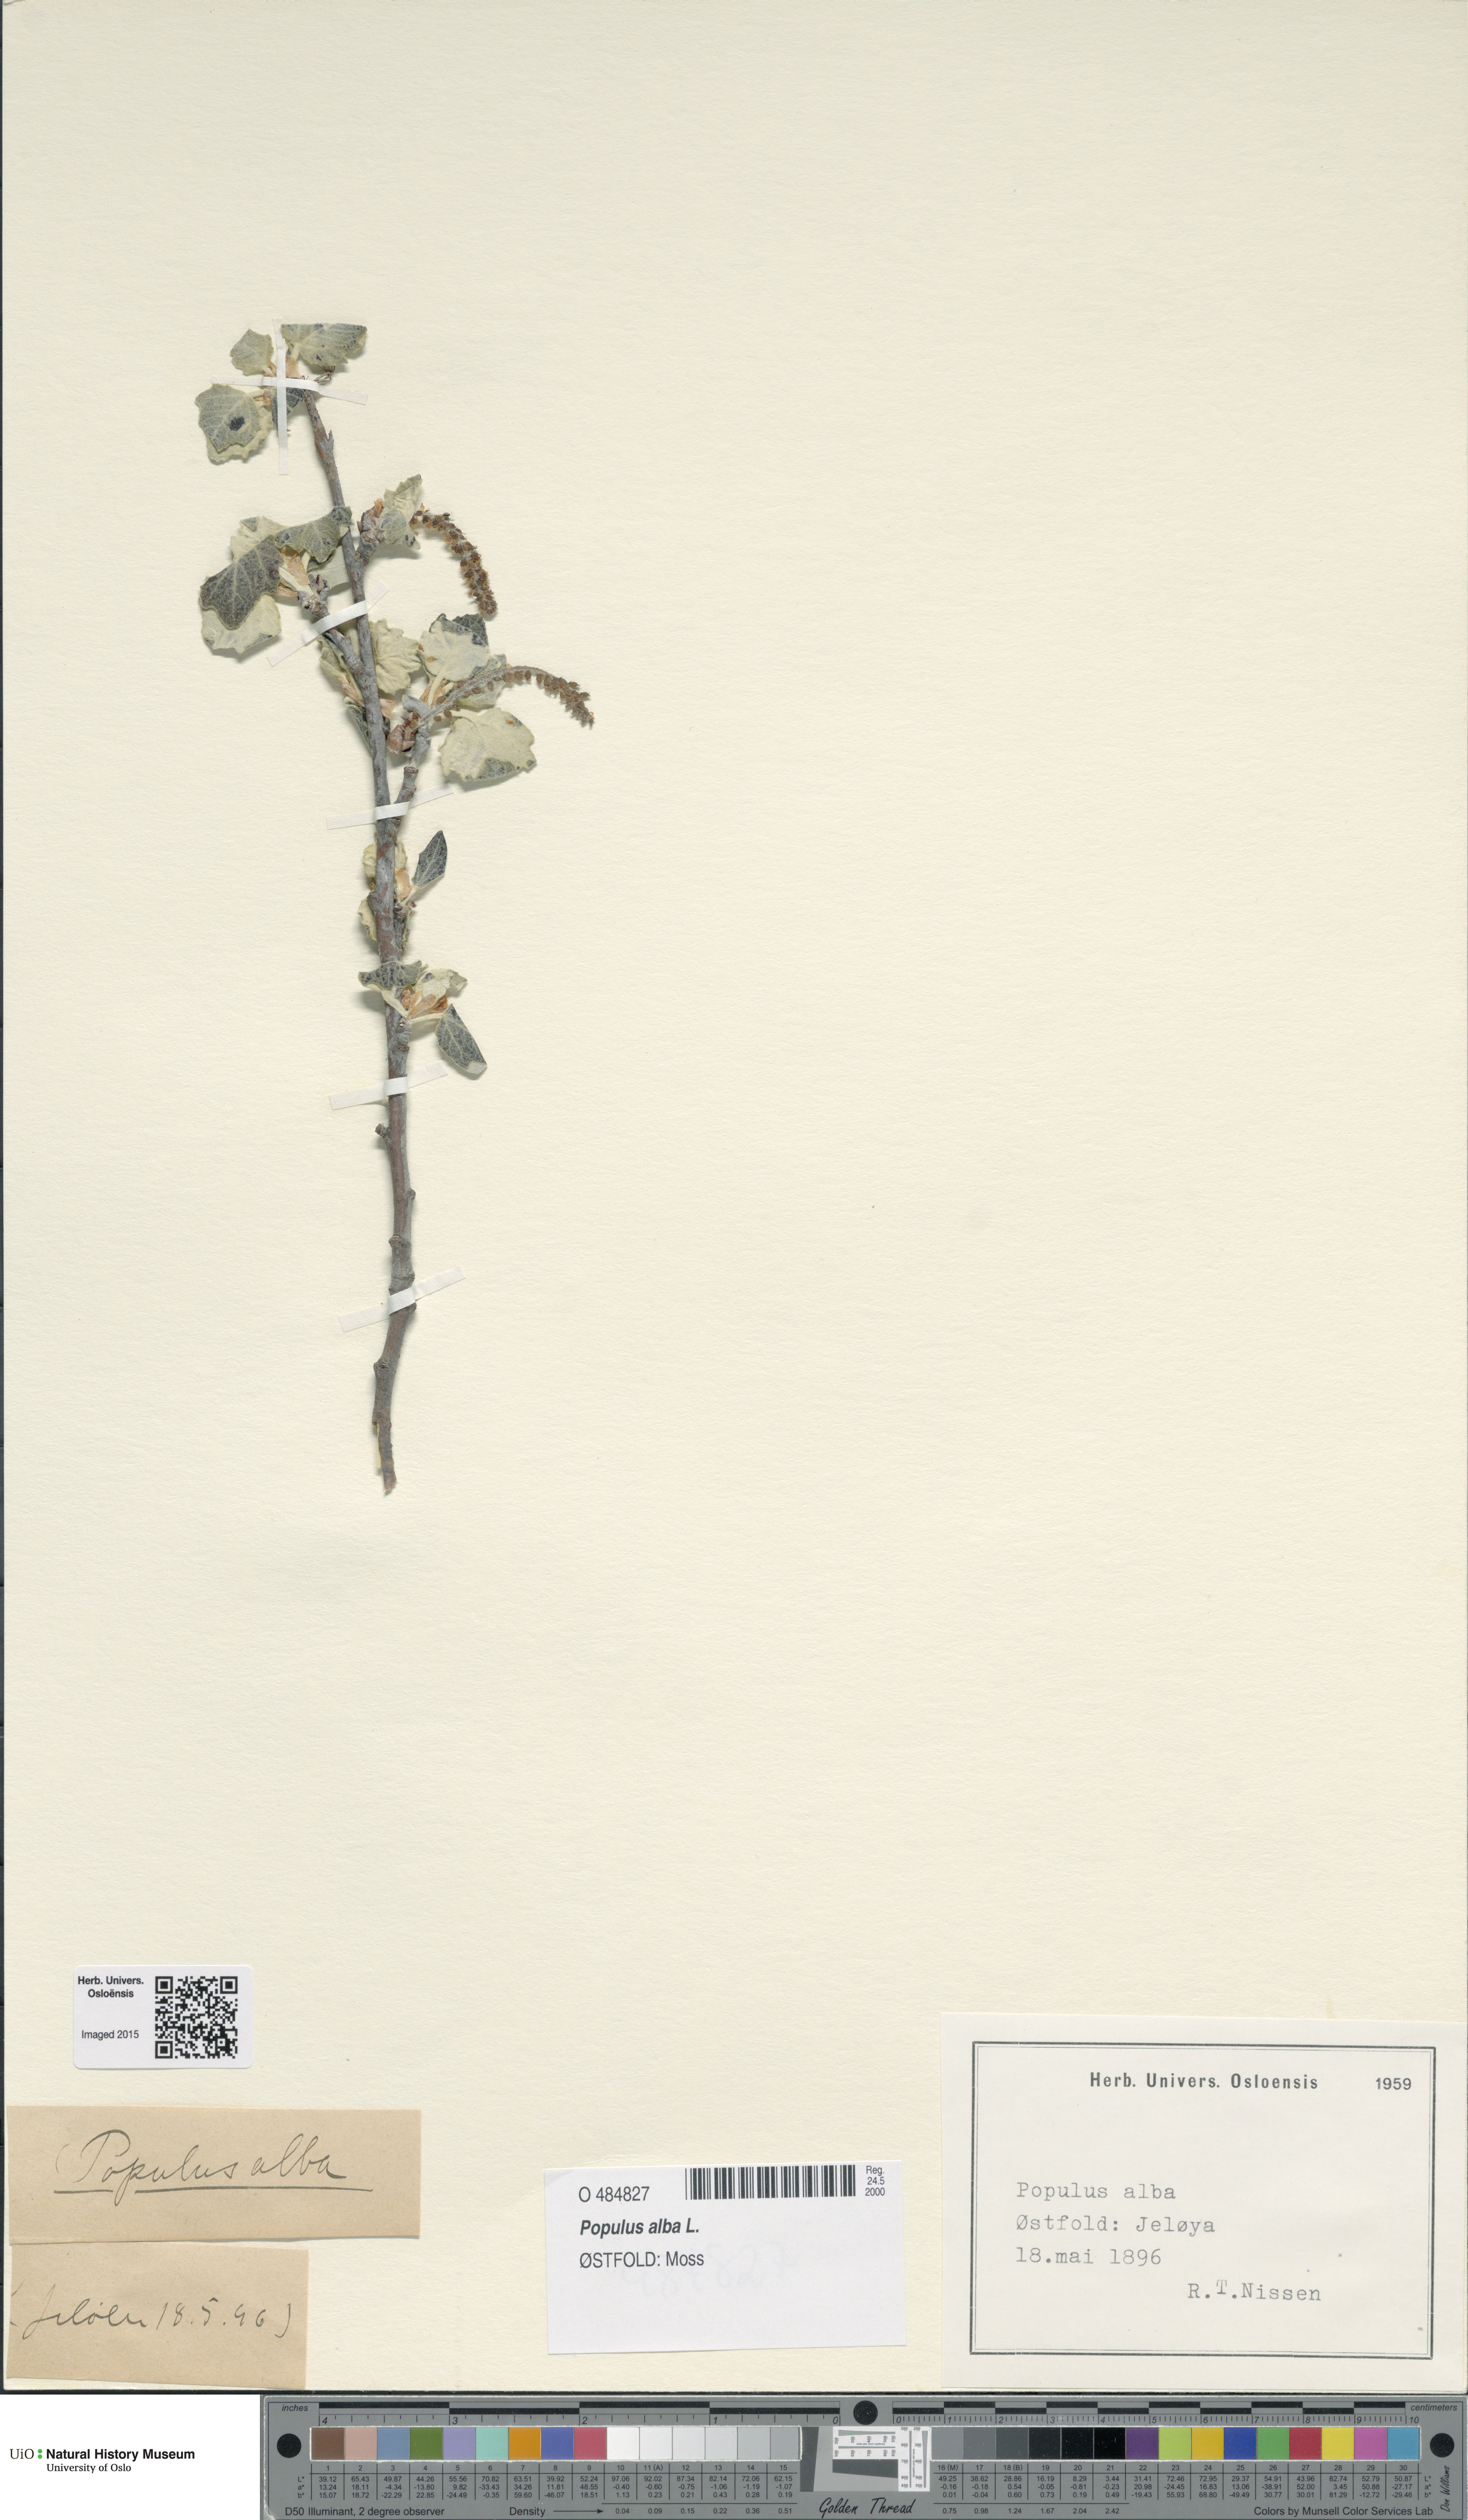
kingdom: Plantae
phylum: Tracheophyta
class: Magnoliopsida
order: Malpighiales
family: Salicaceae
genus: Populus
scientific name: Populus canescens
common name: Gray poplar
